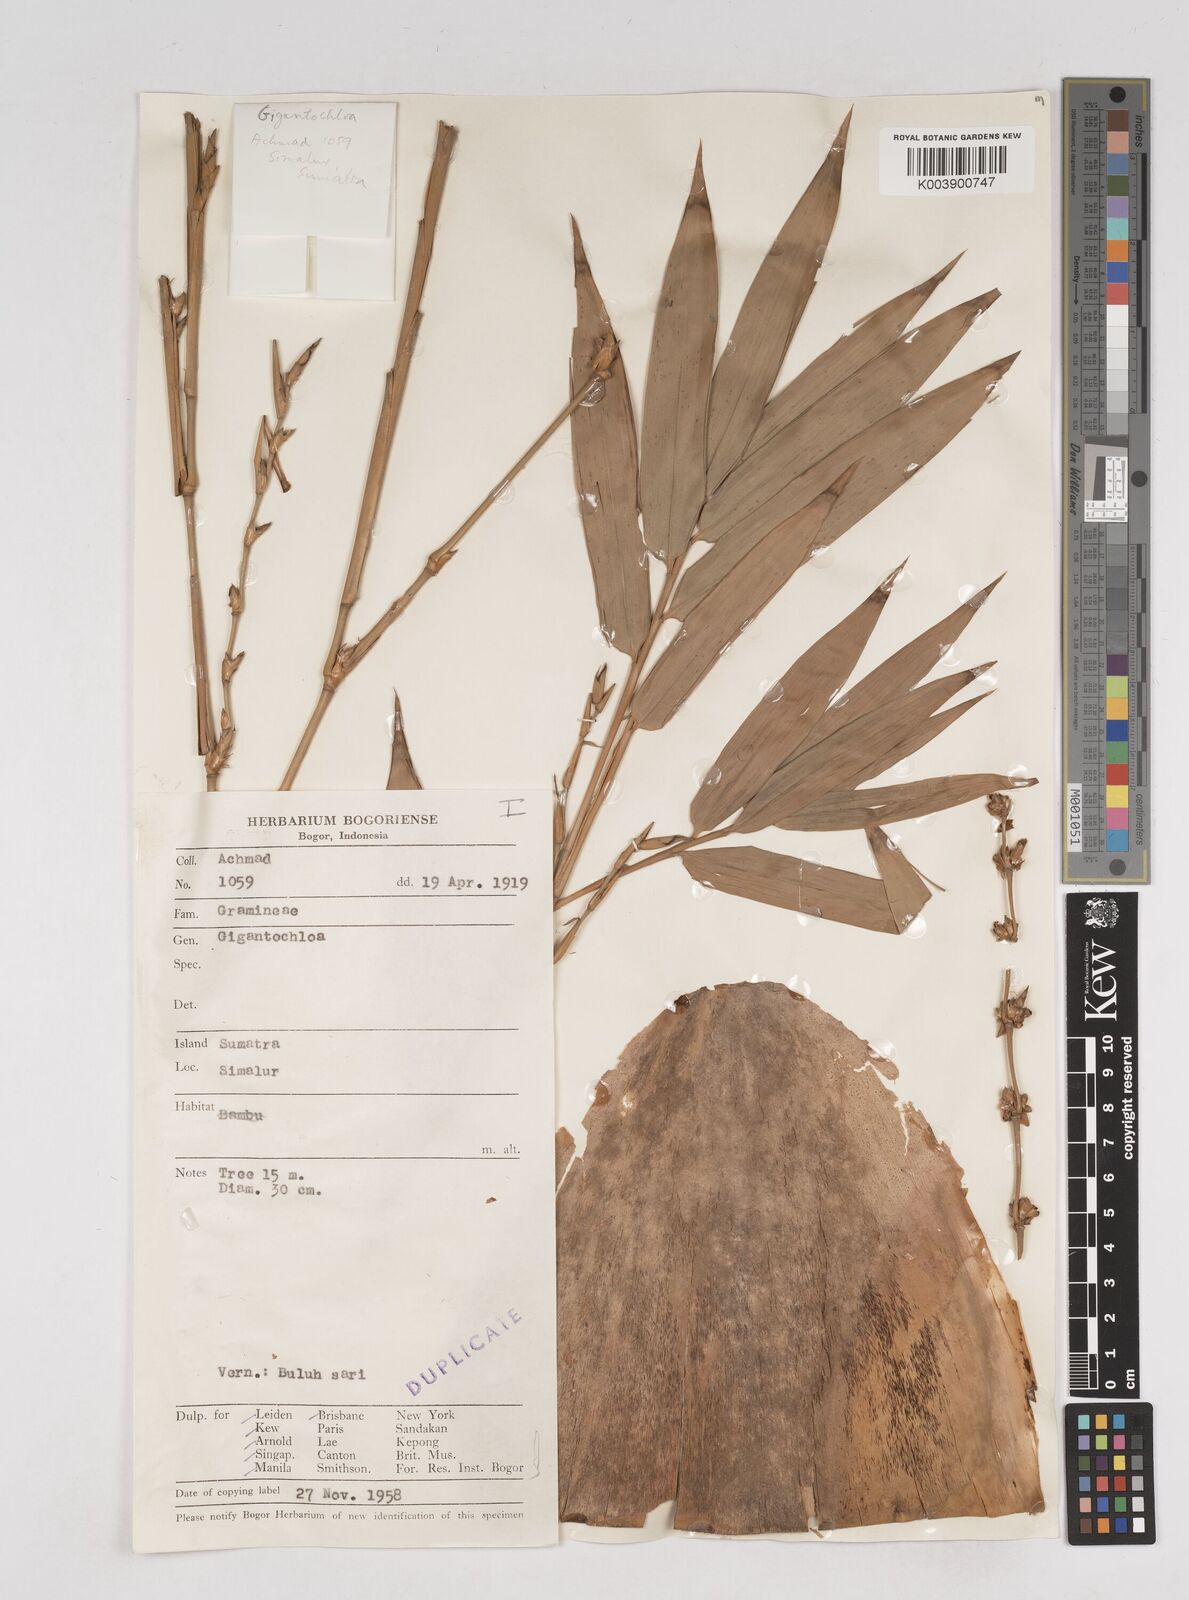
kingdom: Plantae
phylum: Tracheophyta
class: Liliopsida
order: Poales
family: Poaceae
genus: Gigantochloa
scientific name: Gigantochloa
